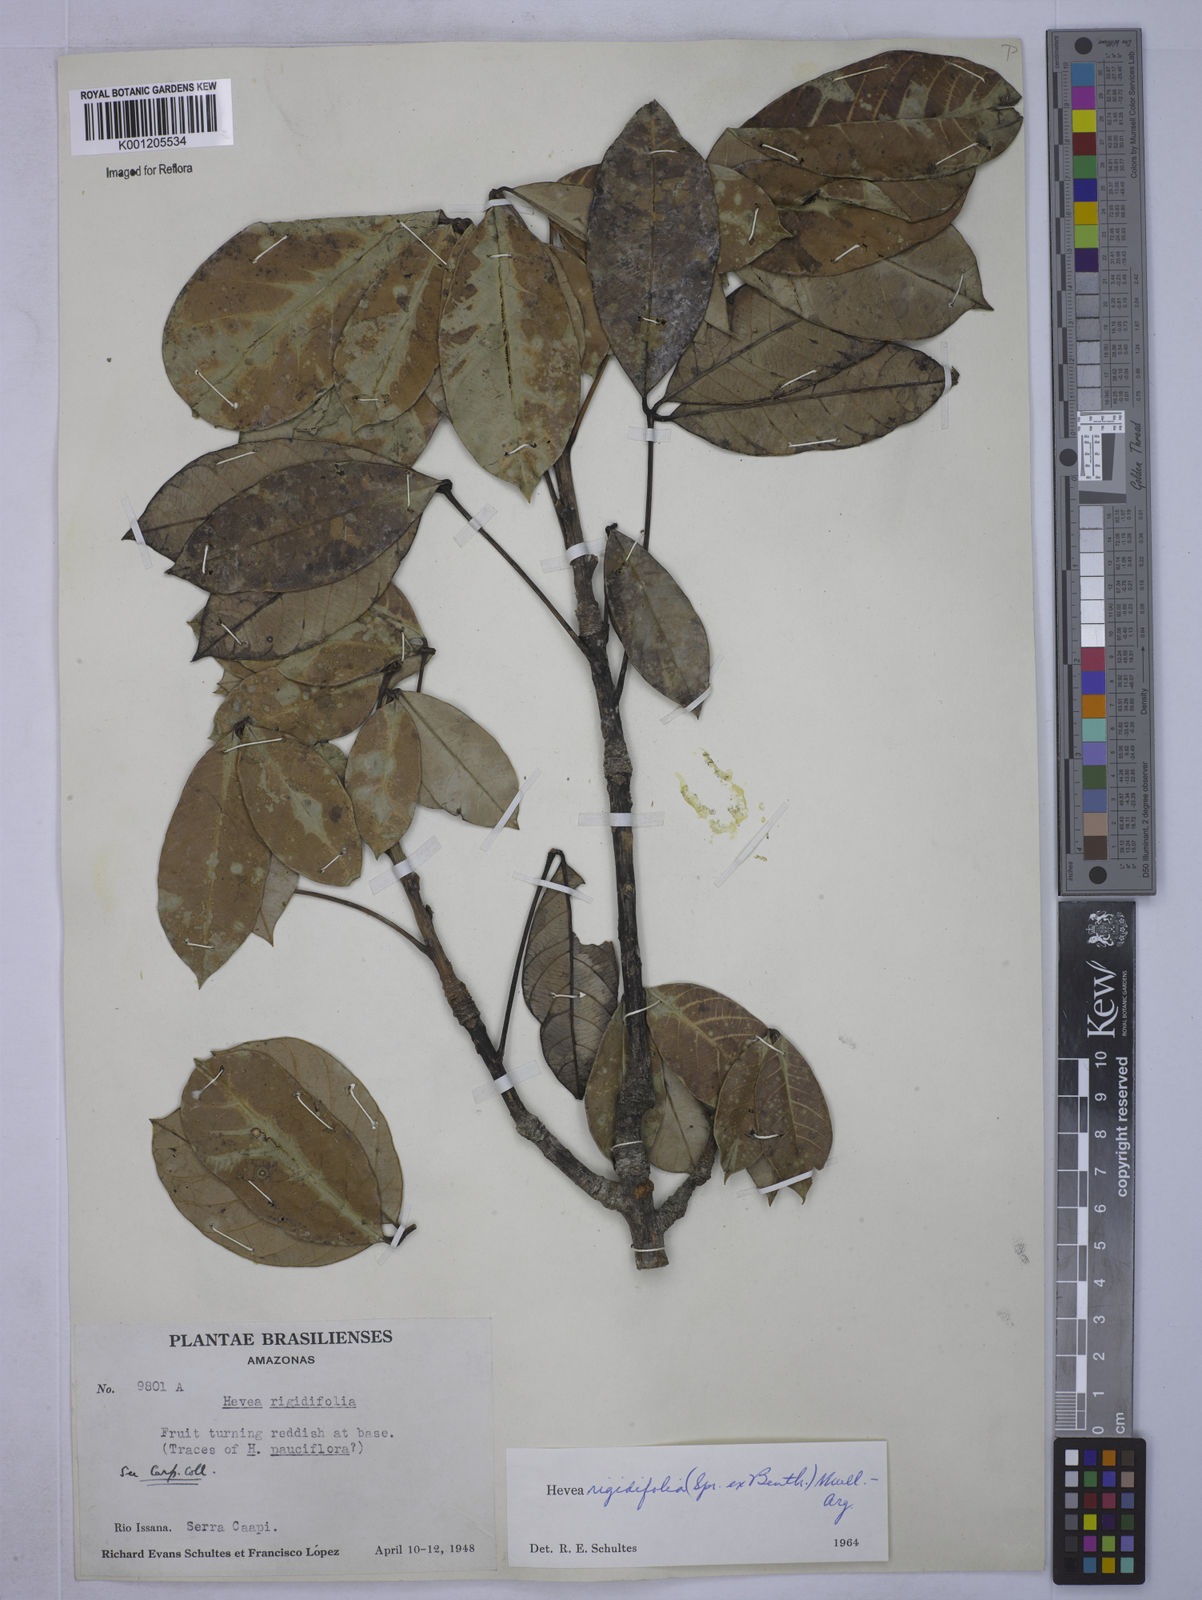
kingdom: Plantae
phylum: Tracheophyta
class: Magnoliopsida
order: Malpighiales
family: Euphorbiaceae
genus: Hevea
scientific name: Hevea
